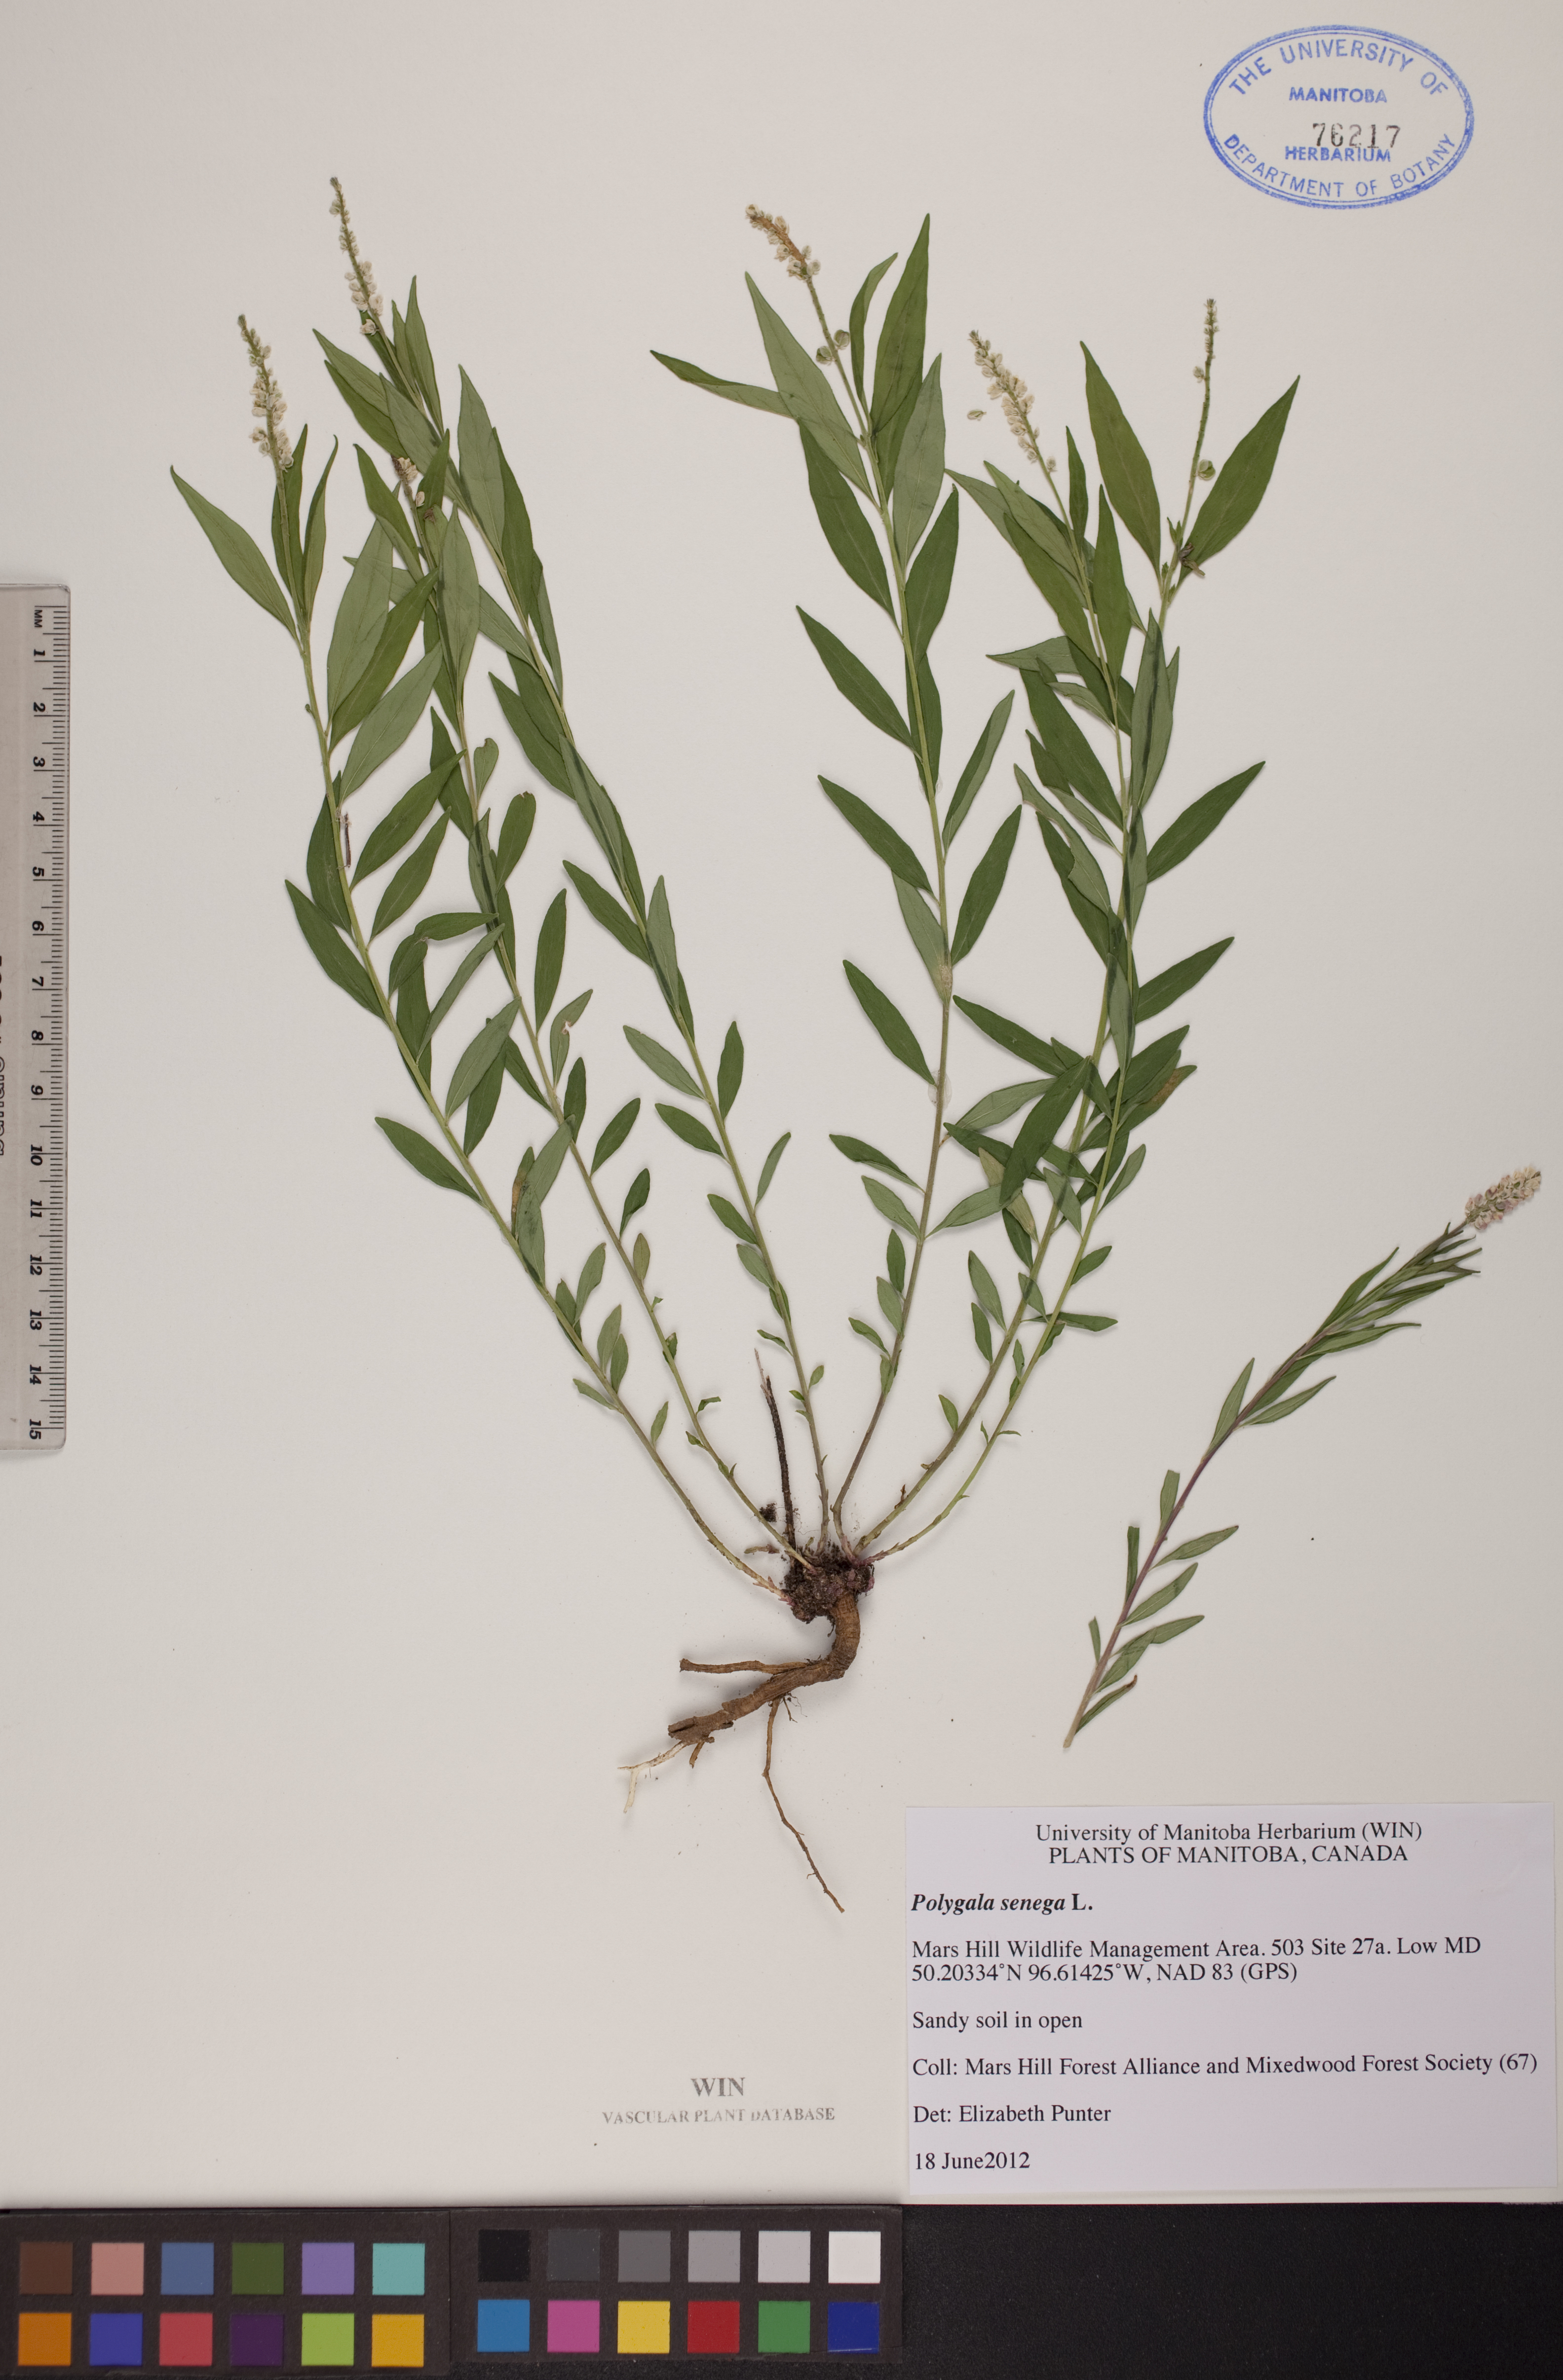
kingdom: Plantae
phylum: Tracheophyta
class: Magnoliopsida
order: Fabales
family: Polygalaceae
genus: Polygala
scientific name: Polygala senega
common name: Seneca snakeroot
